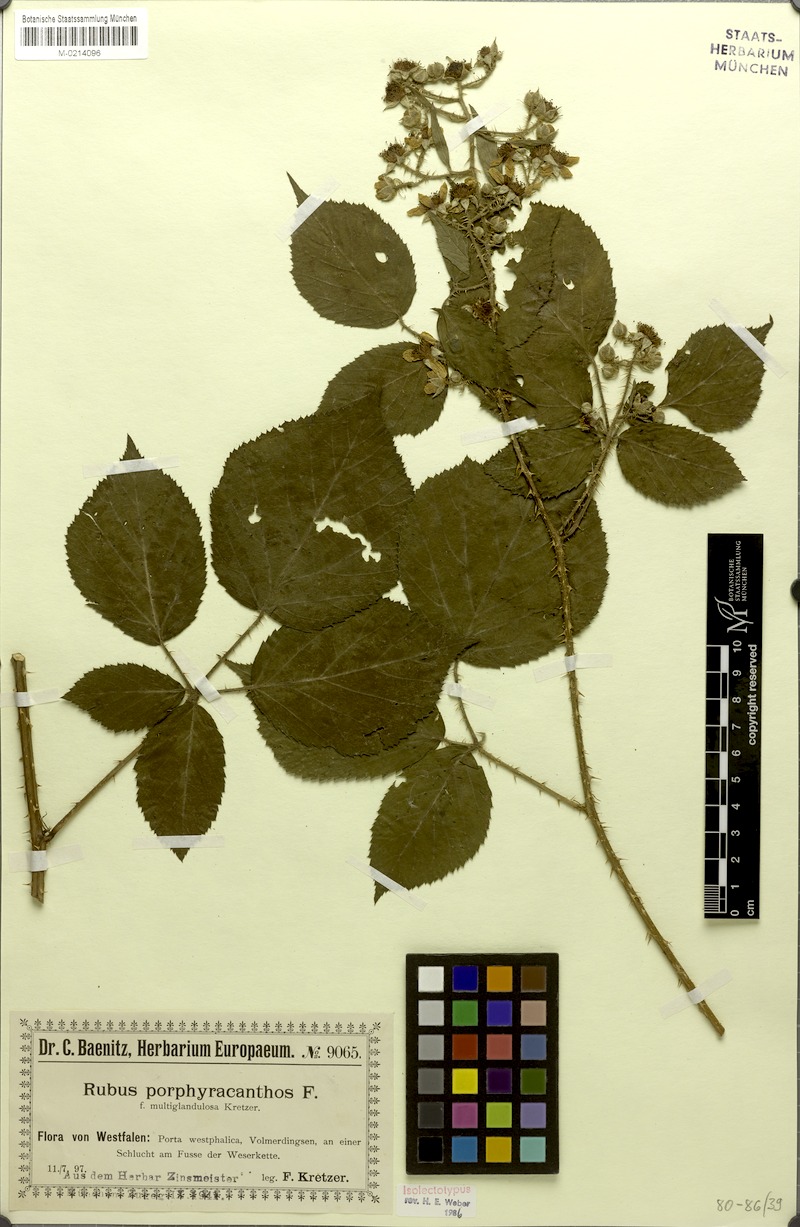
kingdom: Plantae
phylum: Tracheophyta
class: Magnoliopsida
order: Rosales
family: Rosaceae
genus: Rubus
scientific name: Rubus porphyracanthos
